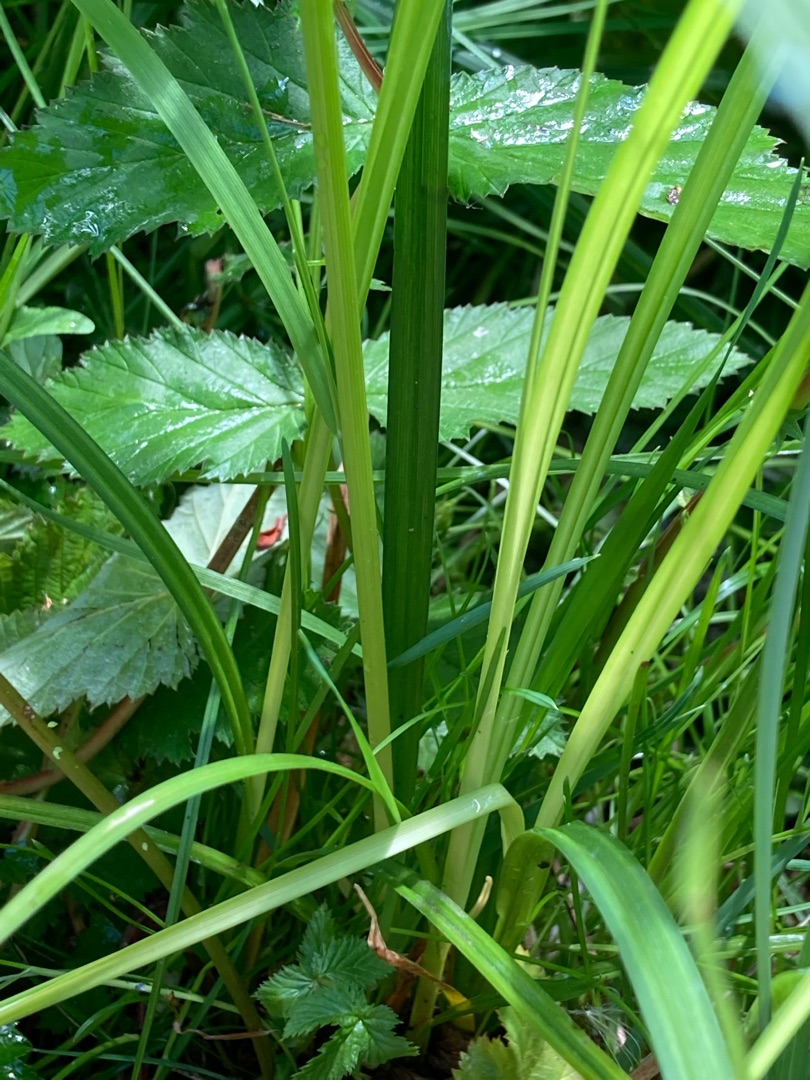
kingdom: Plantae
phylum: Tracheophyta
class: Liliopsida
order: Poales
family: Cyperaceae
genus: Carex
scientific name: Carex vesicaria
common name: Blære-star
